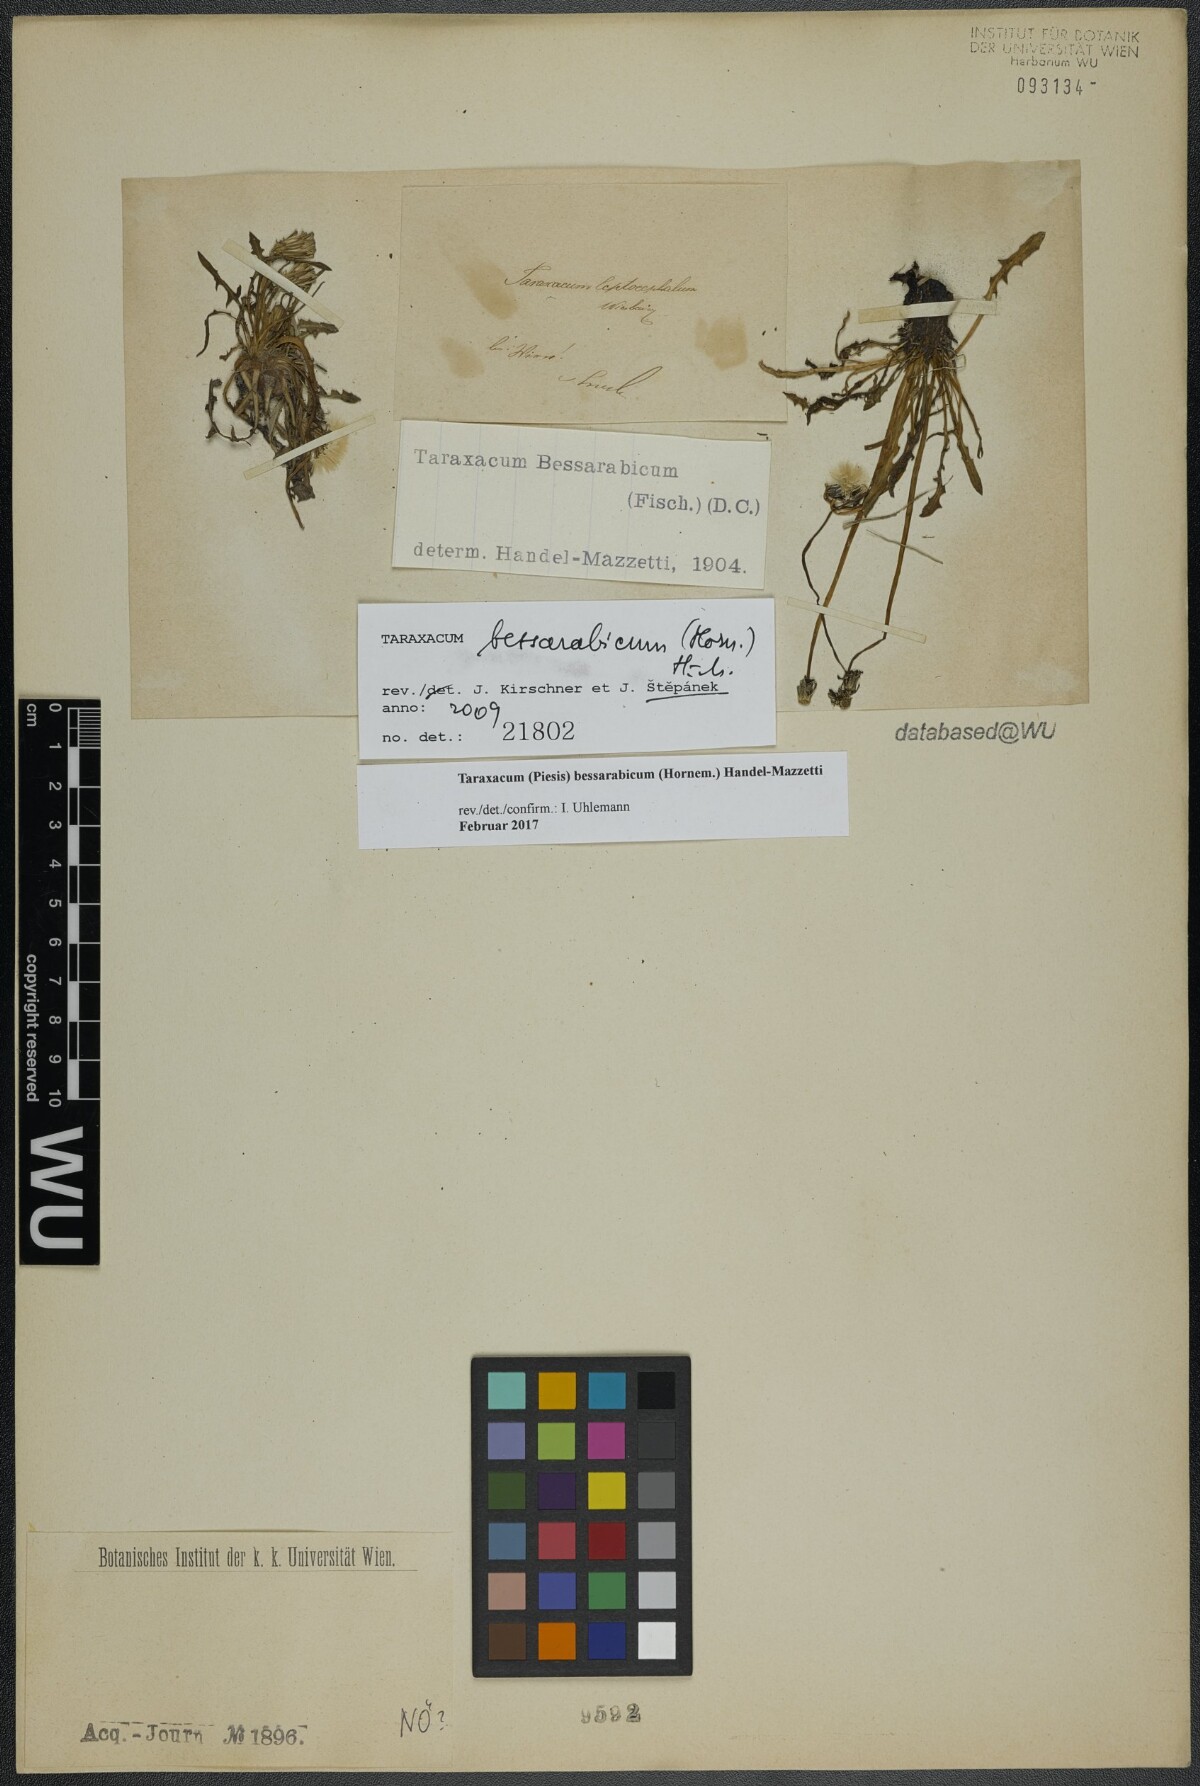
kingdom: Plantae
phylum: Tracheophyta
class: Magnoliopsida
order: Asterales
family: Asteraceae
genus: Taraxacum
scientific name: Taraxacum bessarabicum
